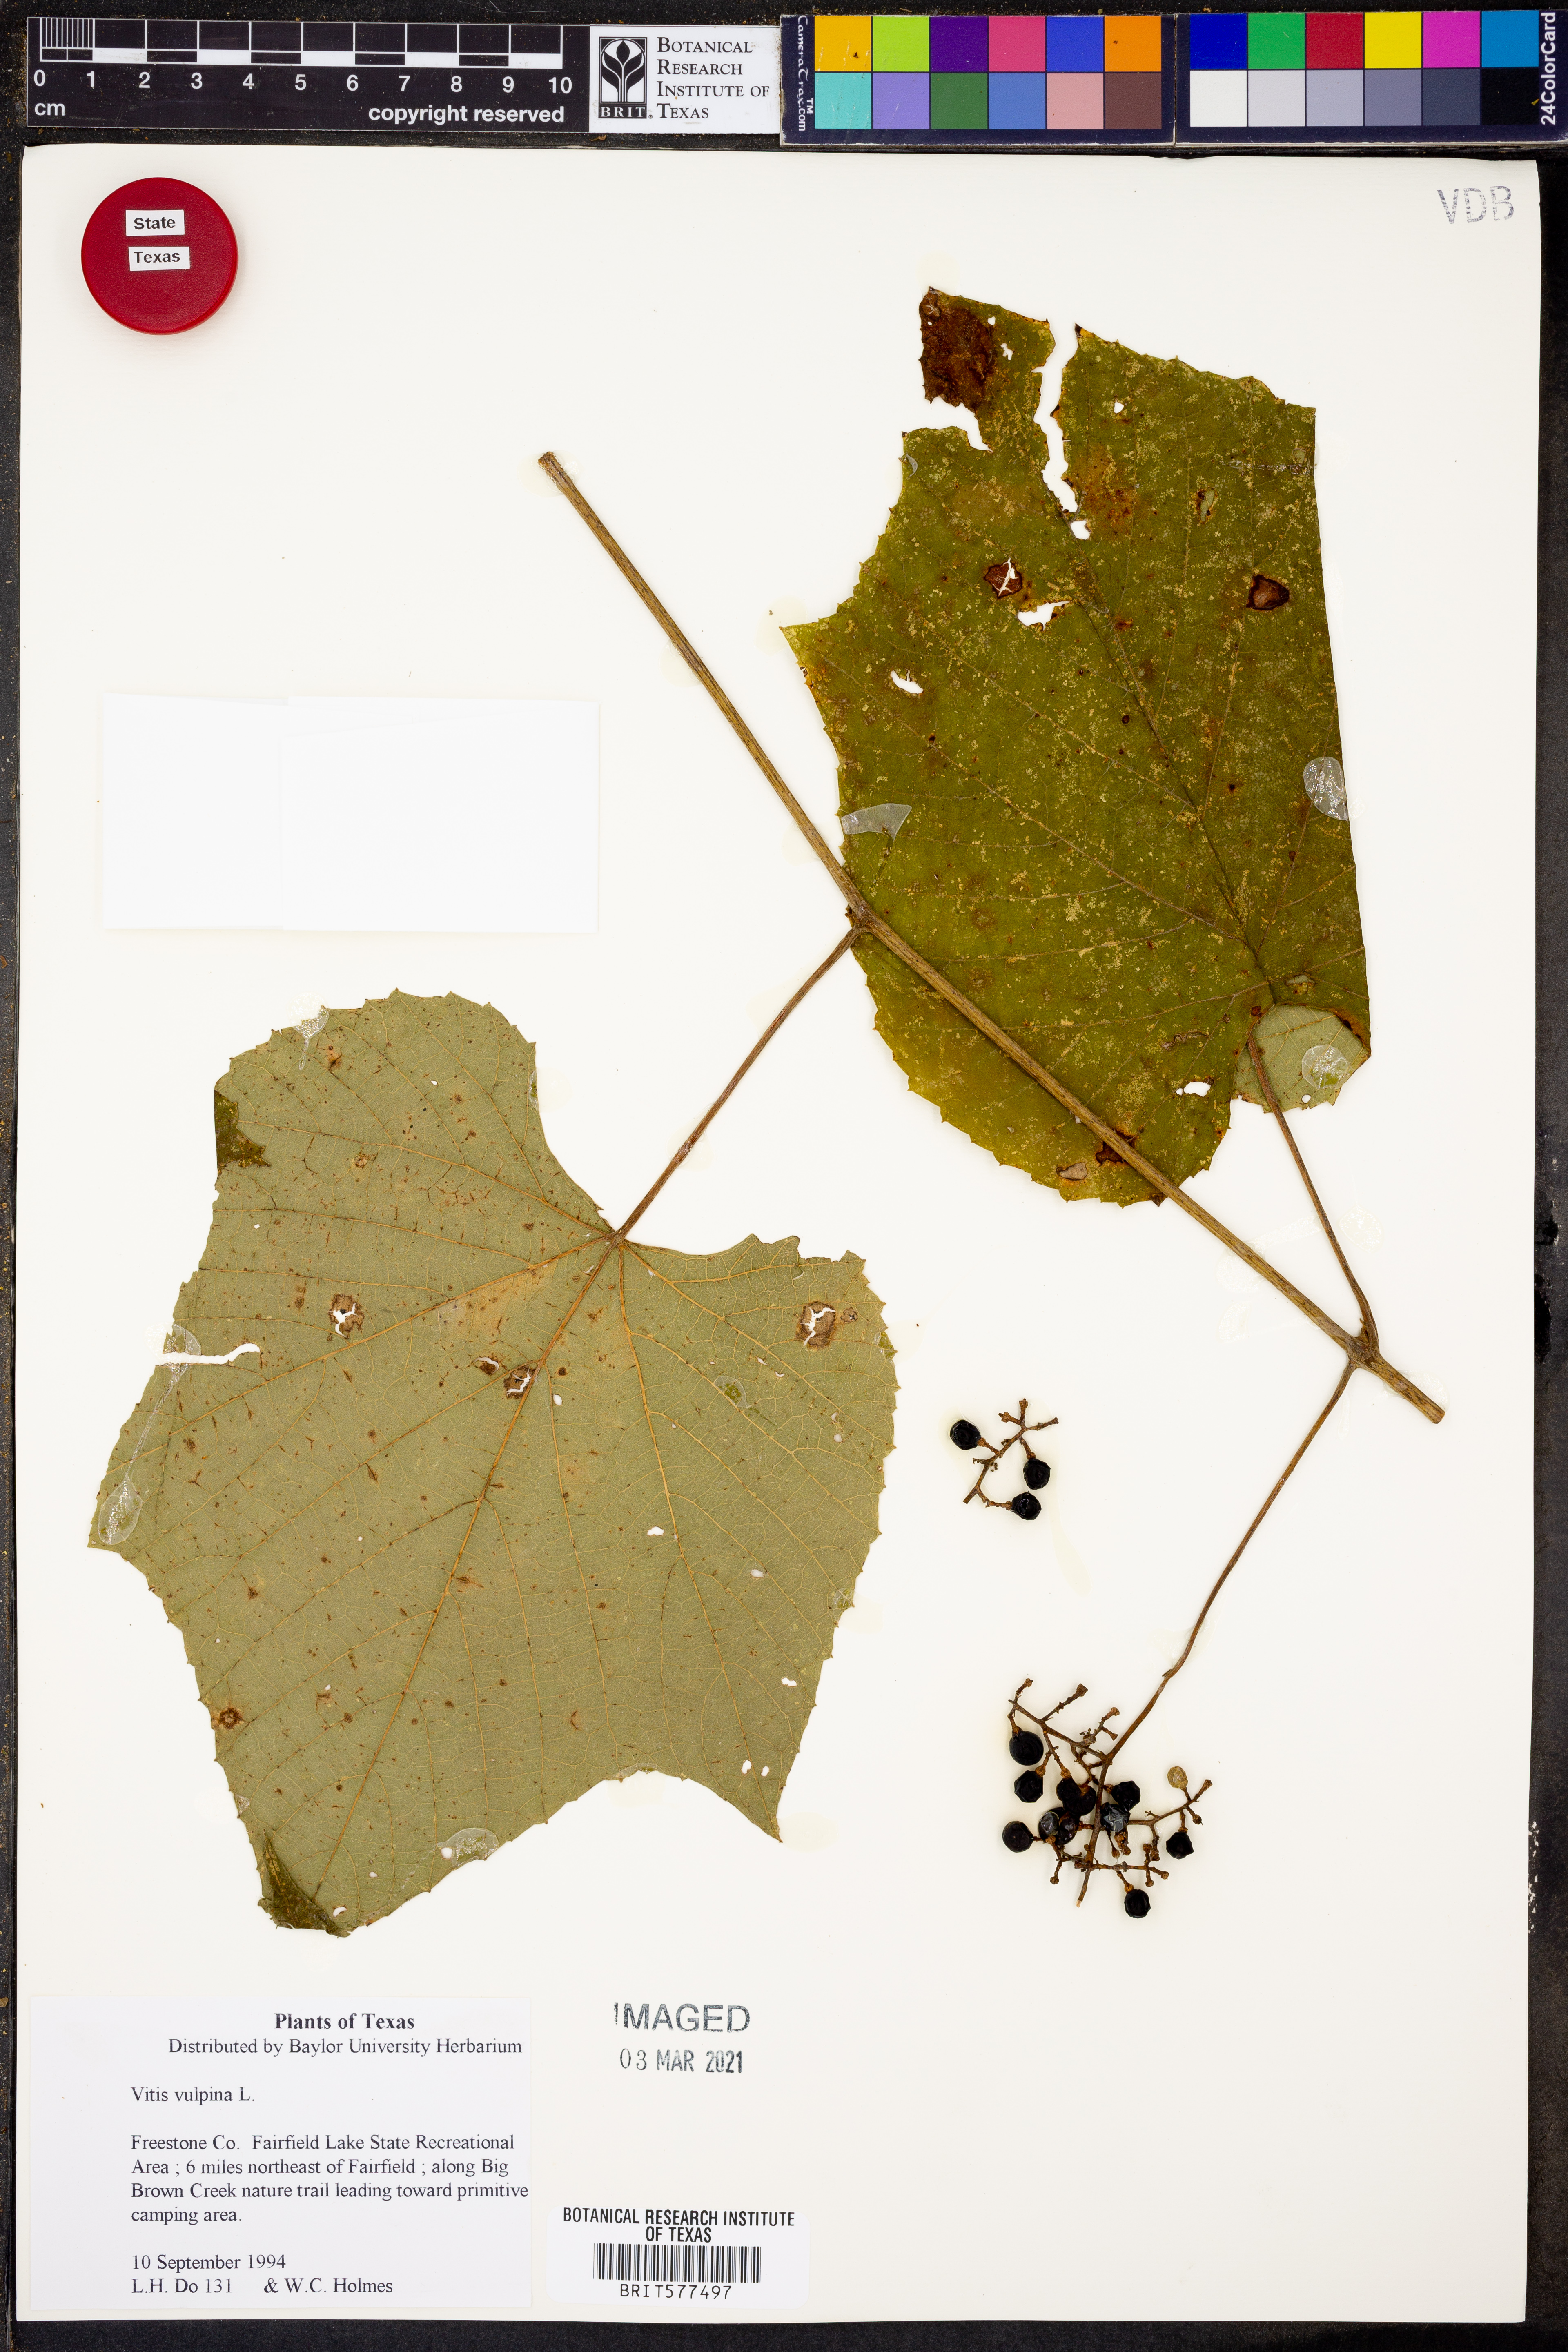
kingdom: Plantae
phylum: Tracheophyta
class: Magnoliopsida
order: Vitales
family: Vitaceae
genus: Vitis
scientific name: Vitis vulpina
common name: Frost grape
